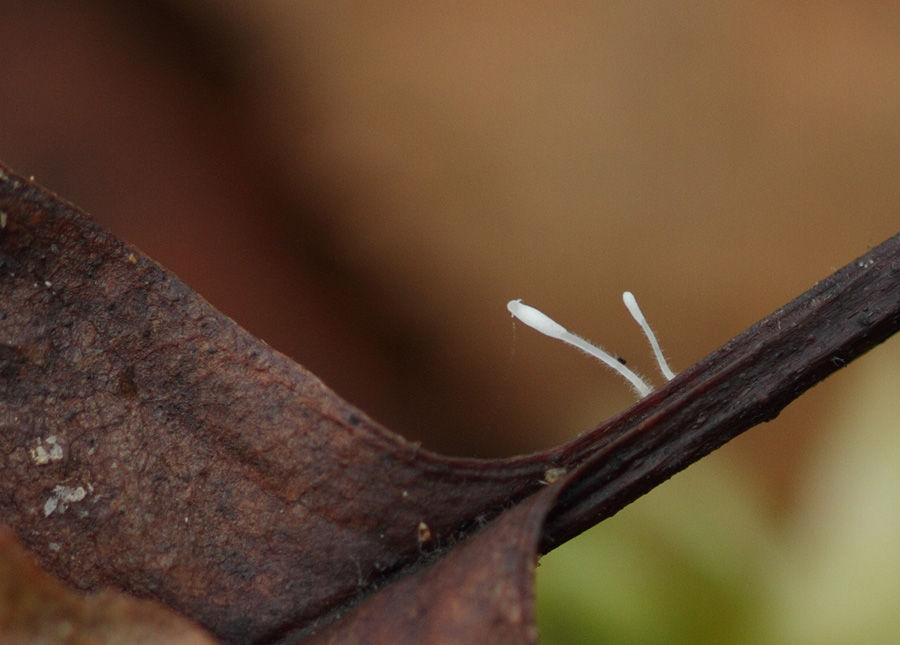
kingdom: Fungi
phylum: Basidiomycota
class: Agaricomycetes
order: Agaricales
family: Typhulaceae
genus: Typhula
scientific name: Typhula setipes
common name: liden trådkølle
